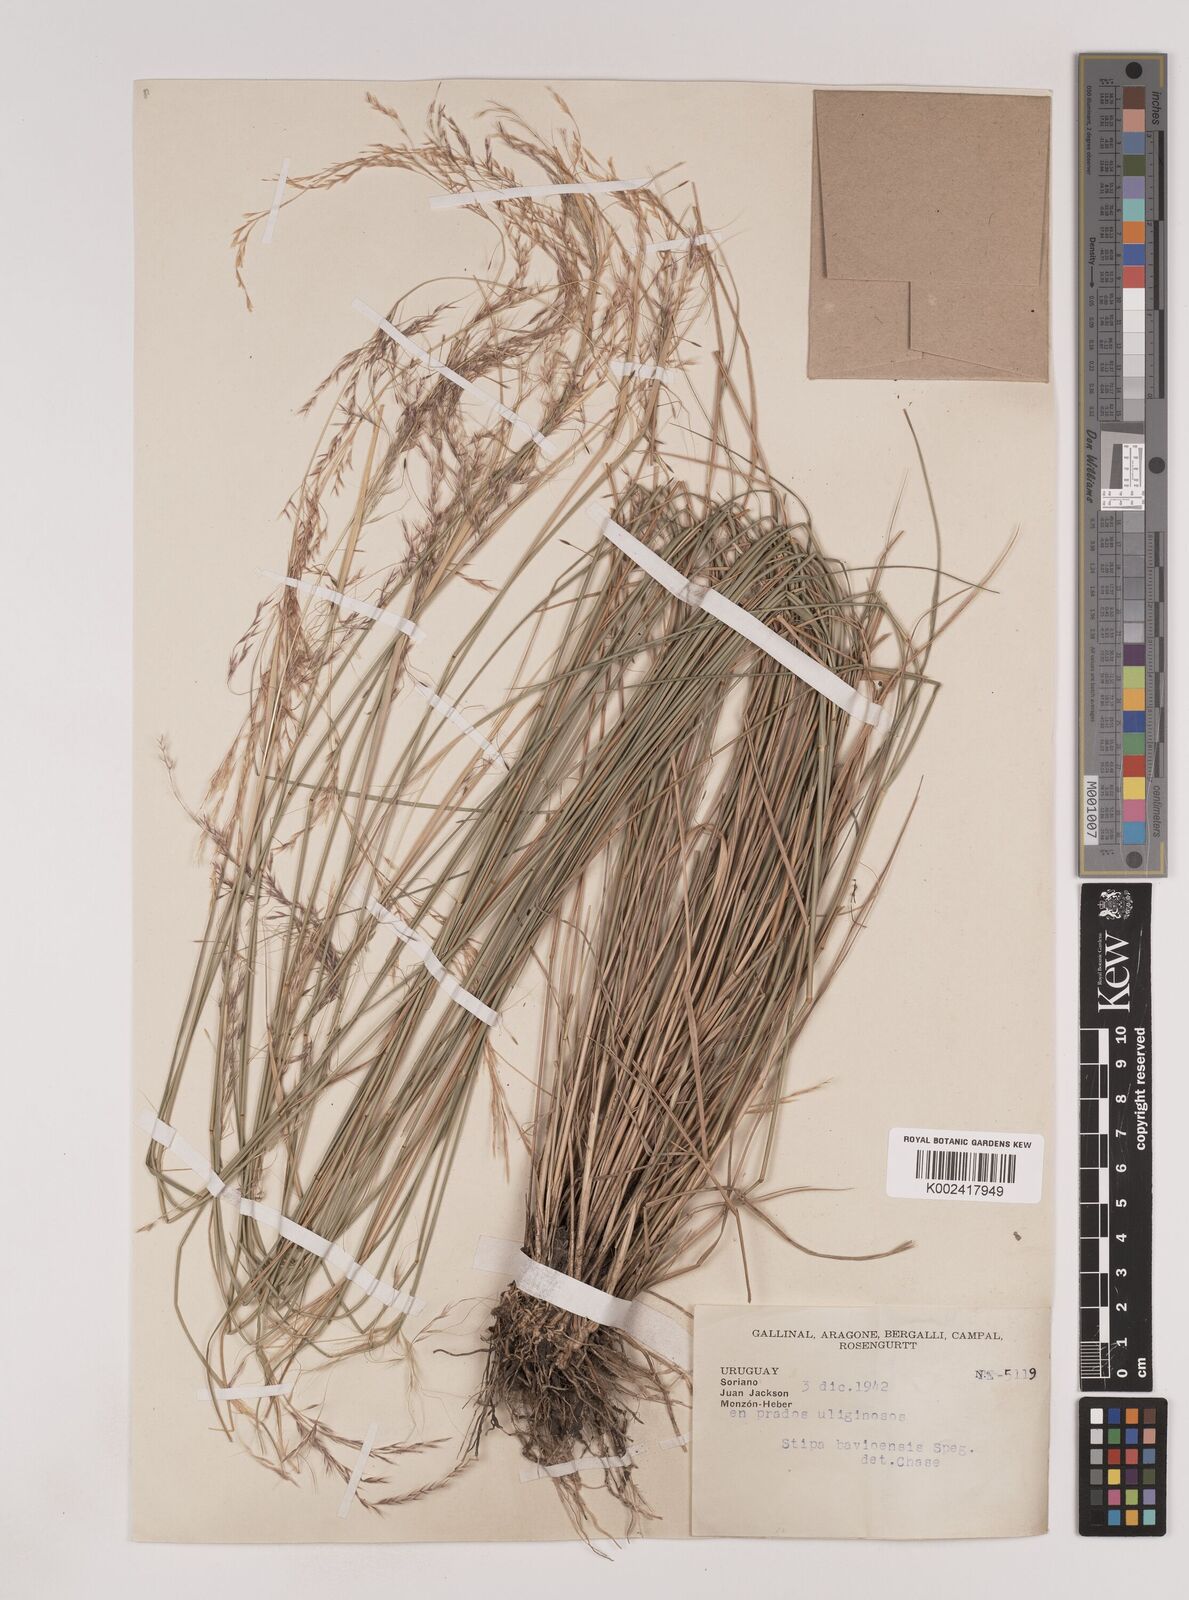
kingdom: Plantae
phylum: Tracheophyta
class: Liliopsida
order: Poales
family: Poaceae
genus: Nassella
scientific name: Nassella philippii
